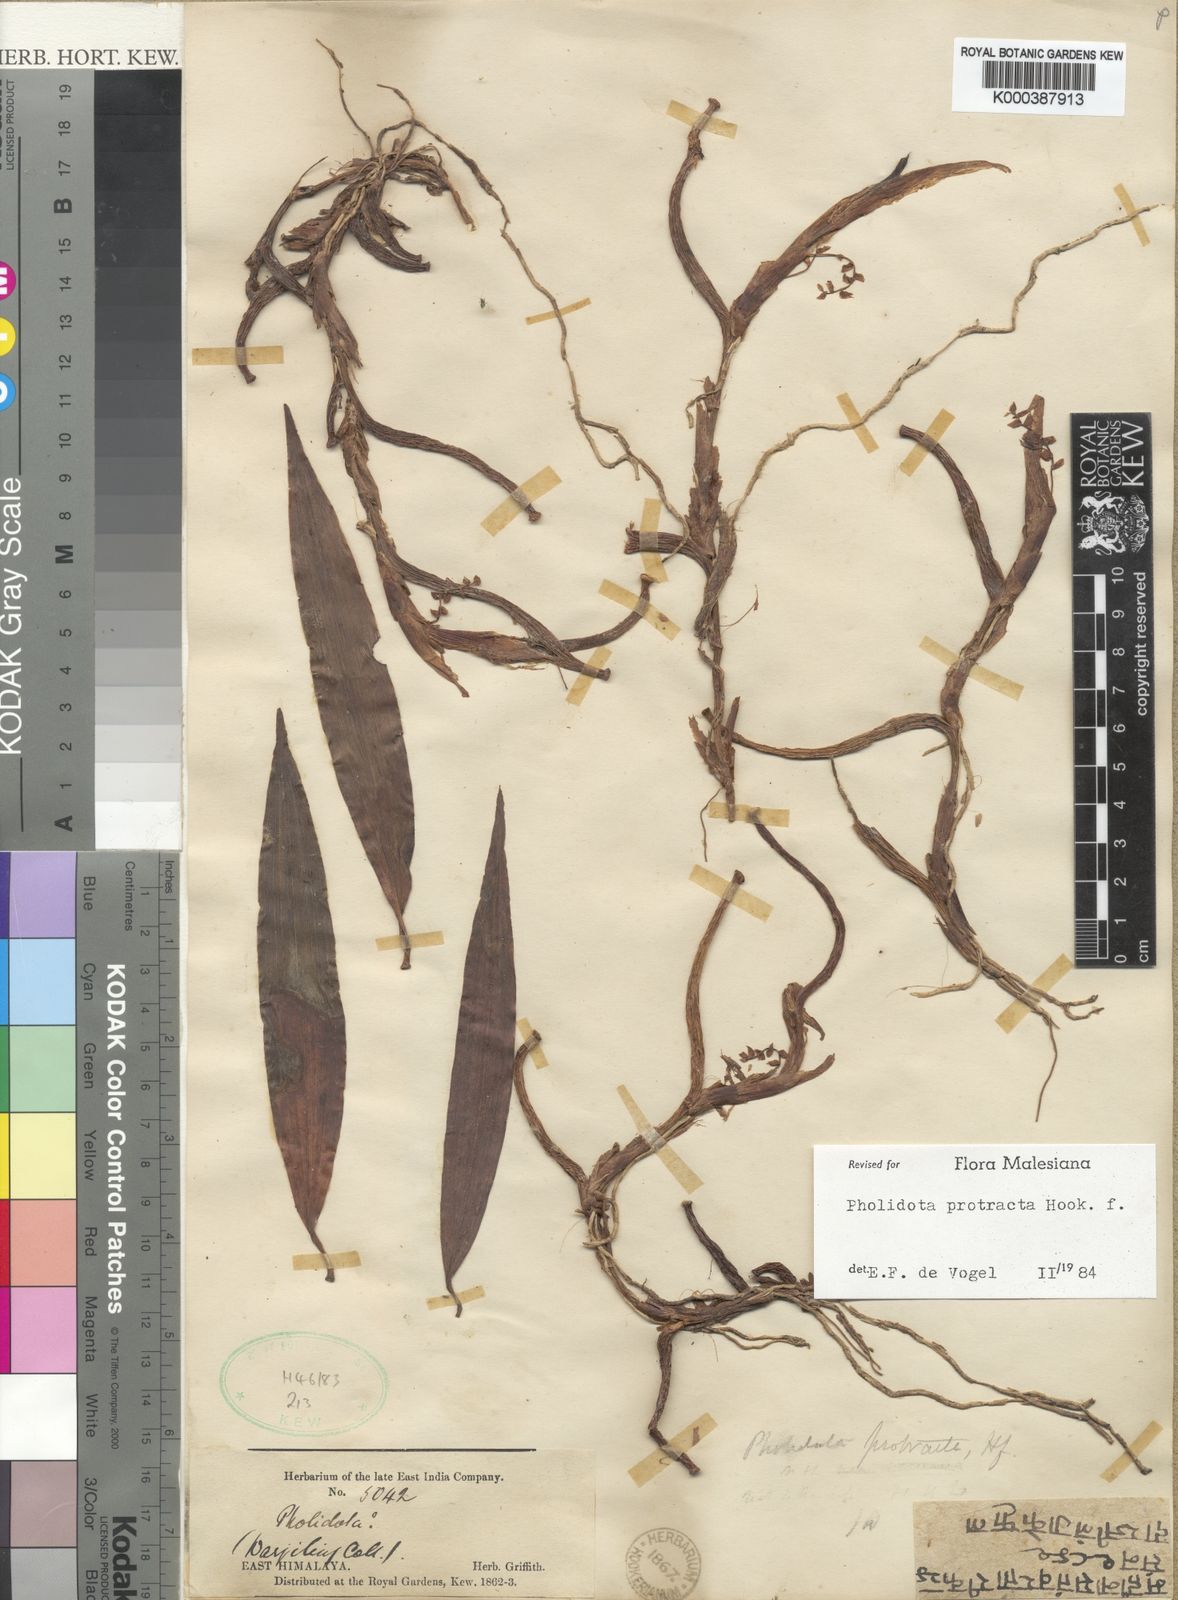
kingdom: Plantae
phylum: Tracheophyta
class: Liliopsida
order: Asparagales
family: Orchidaceae
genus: Coelogyne
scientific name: Coelogyne protracta
